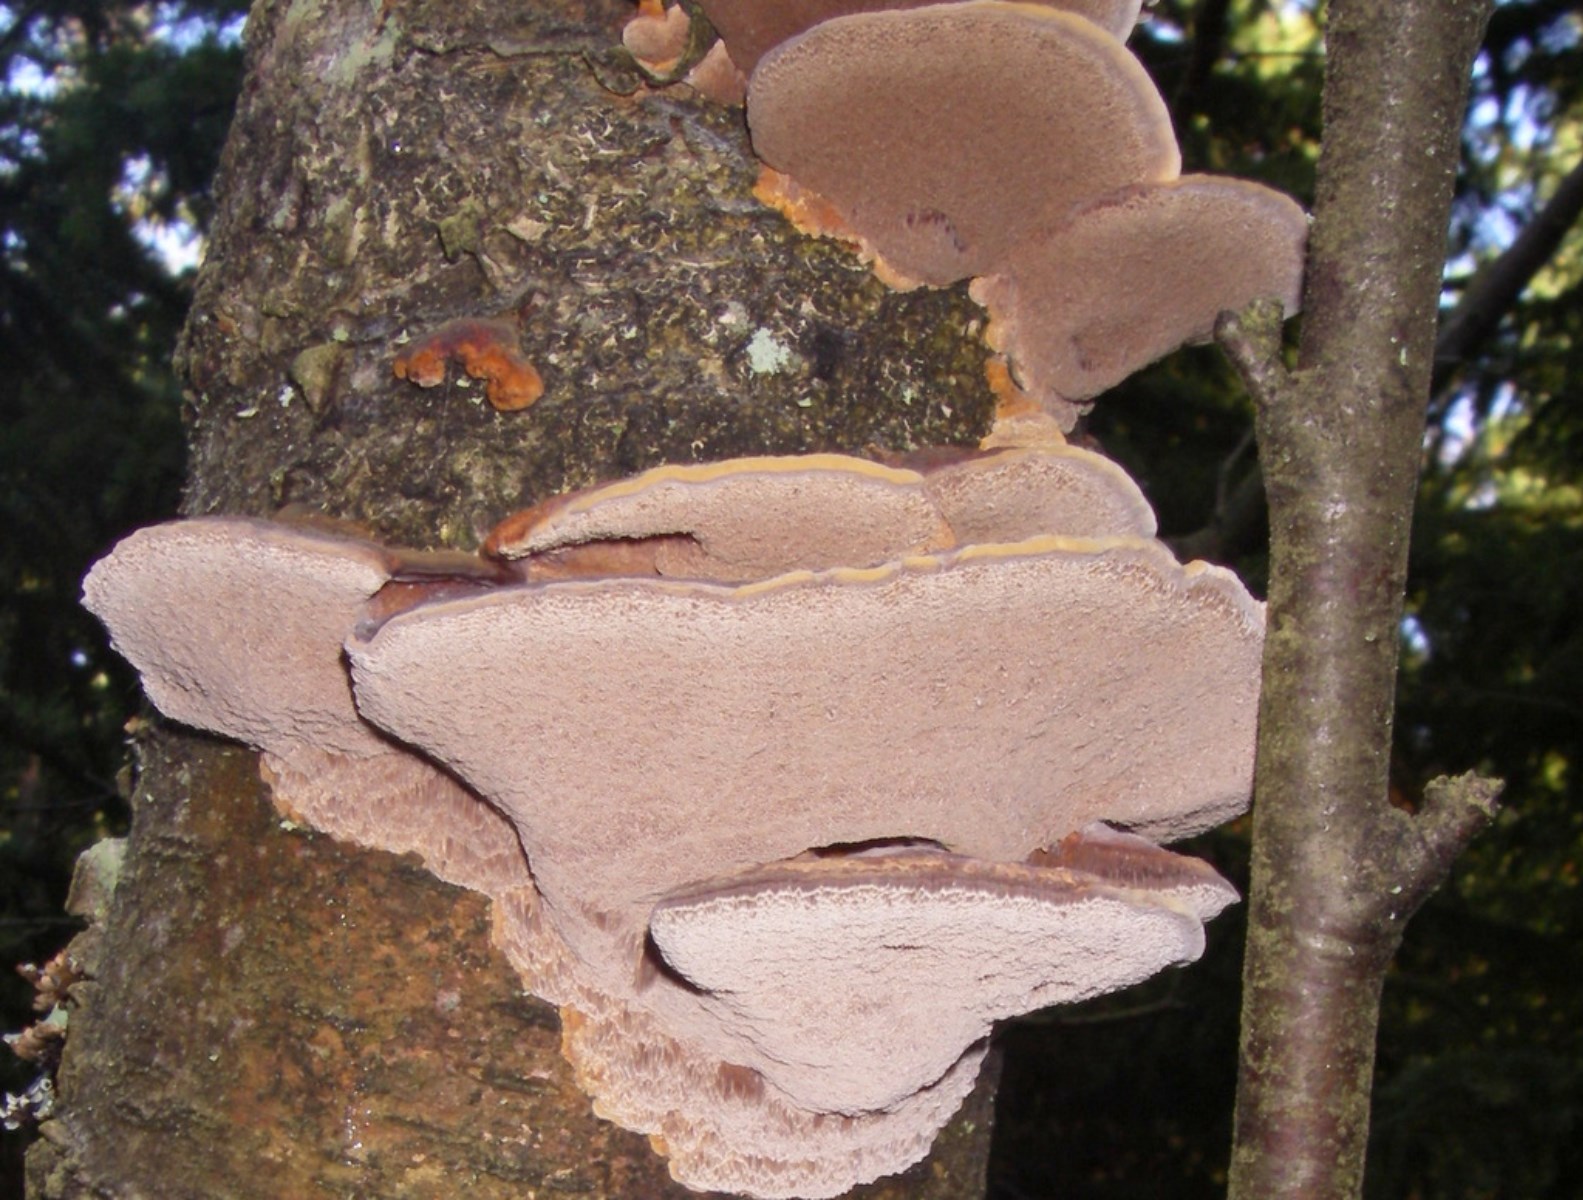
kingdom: Fungi
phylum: Basidiomycota
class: Agaricomycetes
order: Hymenochaetales
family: Hymenochaetaceae
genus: Xanthoporia
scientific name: Xanthoporia radiata
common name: elle-spejlporesvamp
